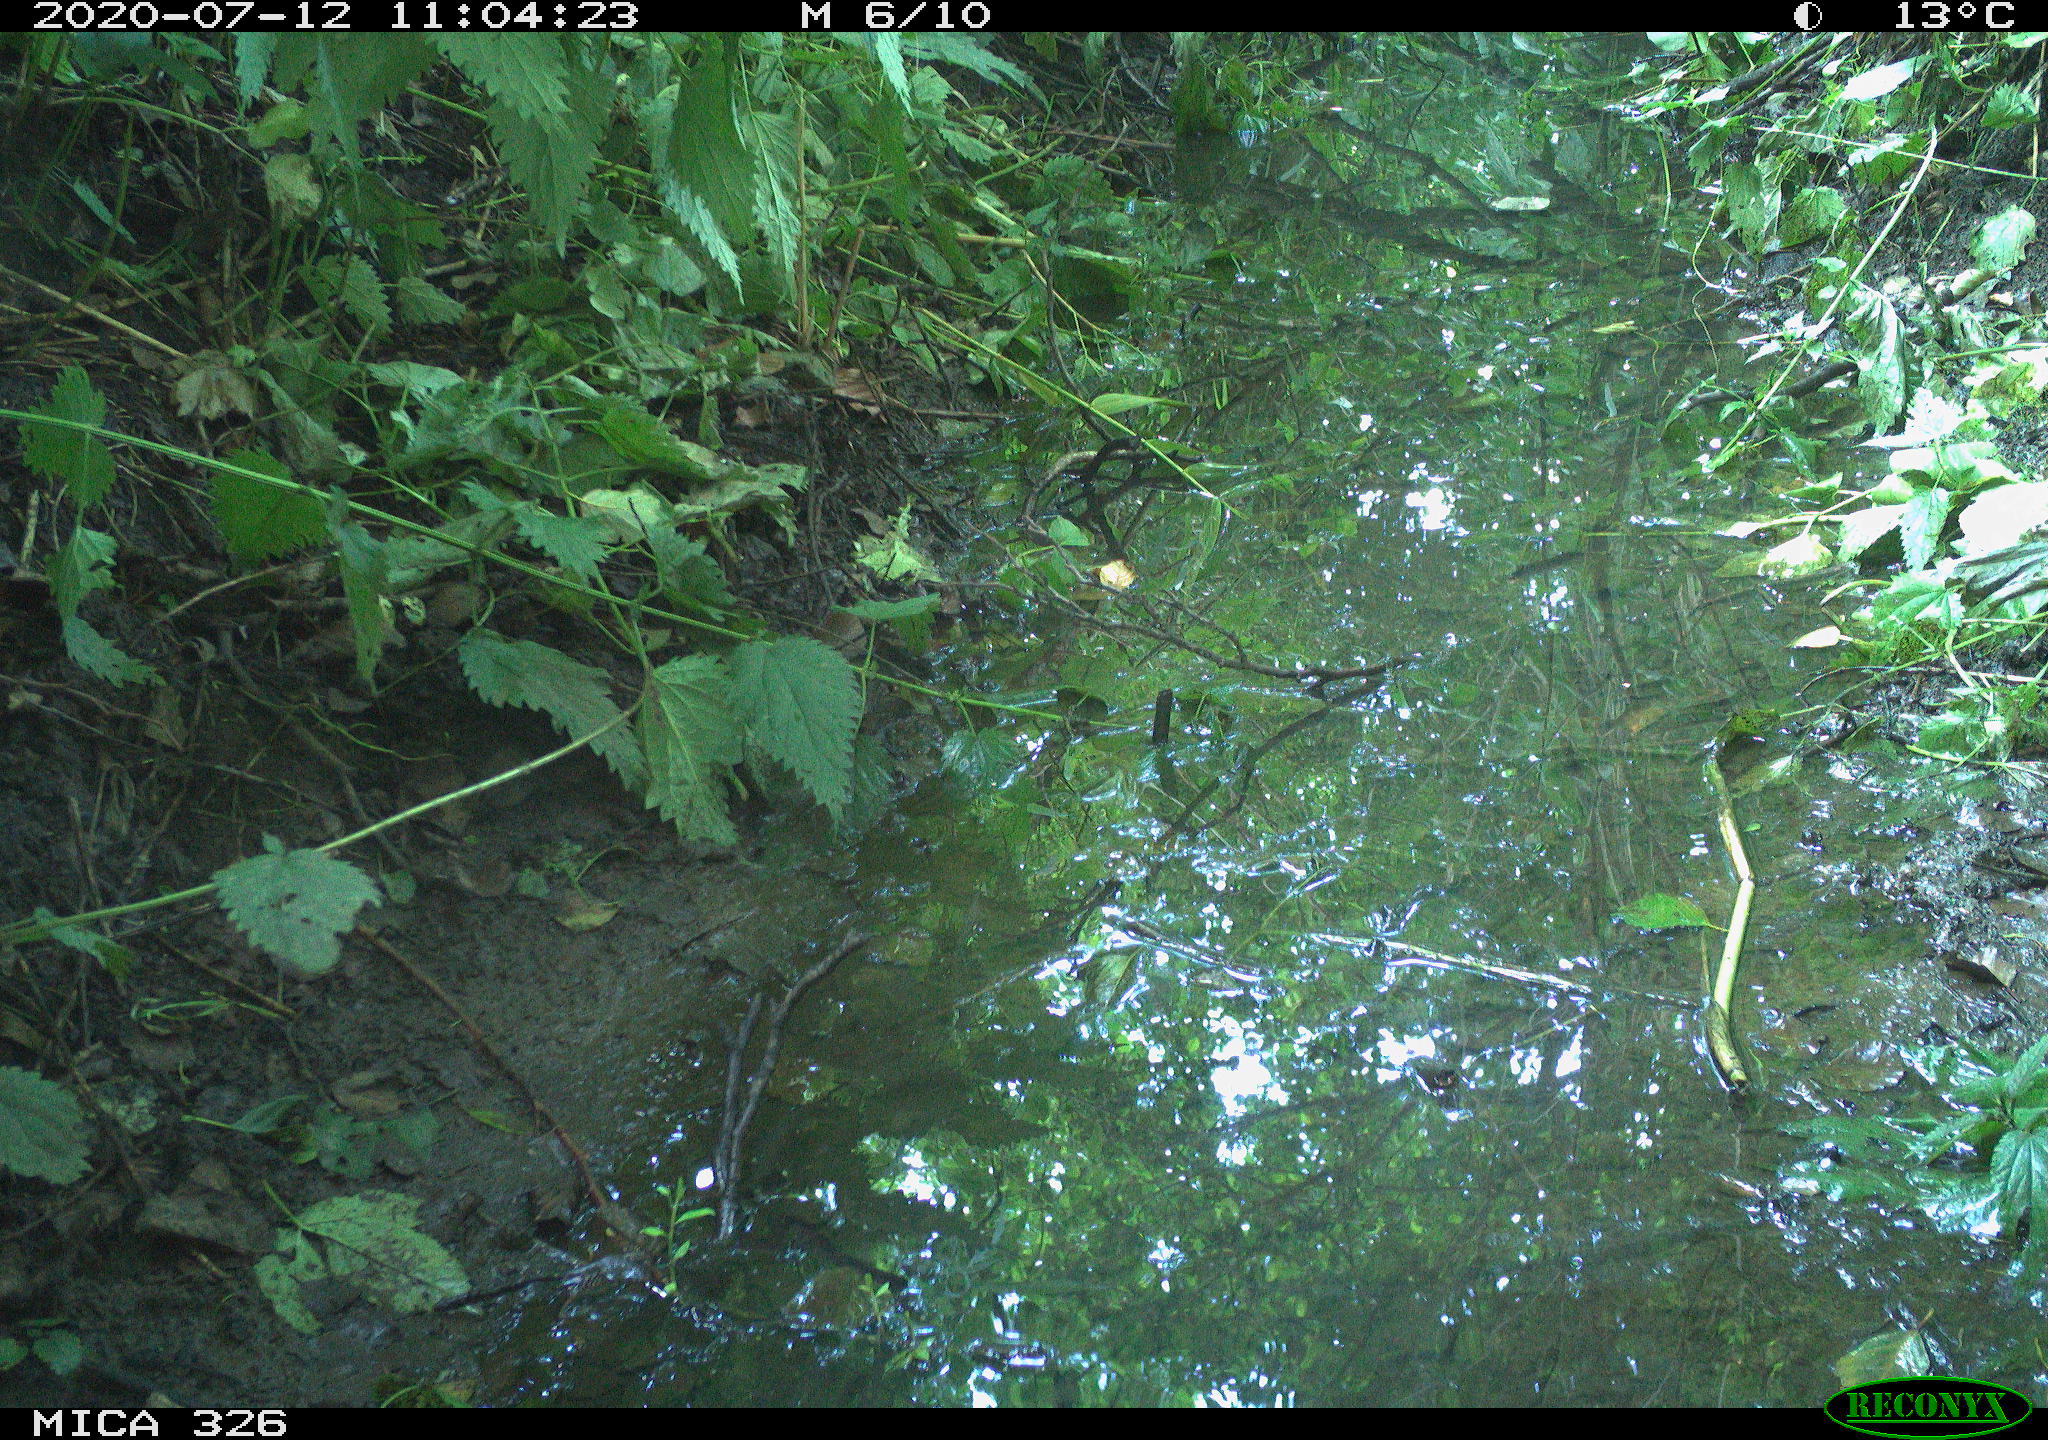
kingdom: Animalia
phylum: Chordata
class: Aves
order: Passeriformes
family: Turdidae
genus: Turdus
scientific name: Turdus philomelos
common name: Song thrush
